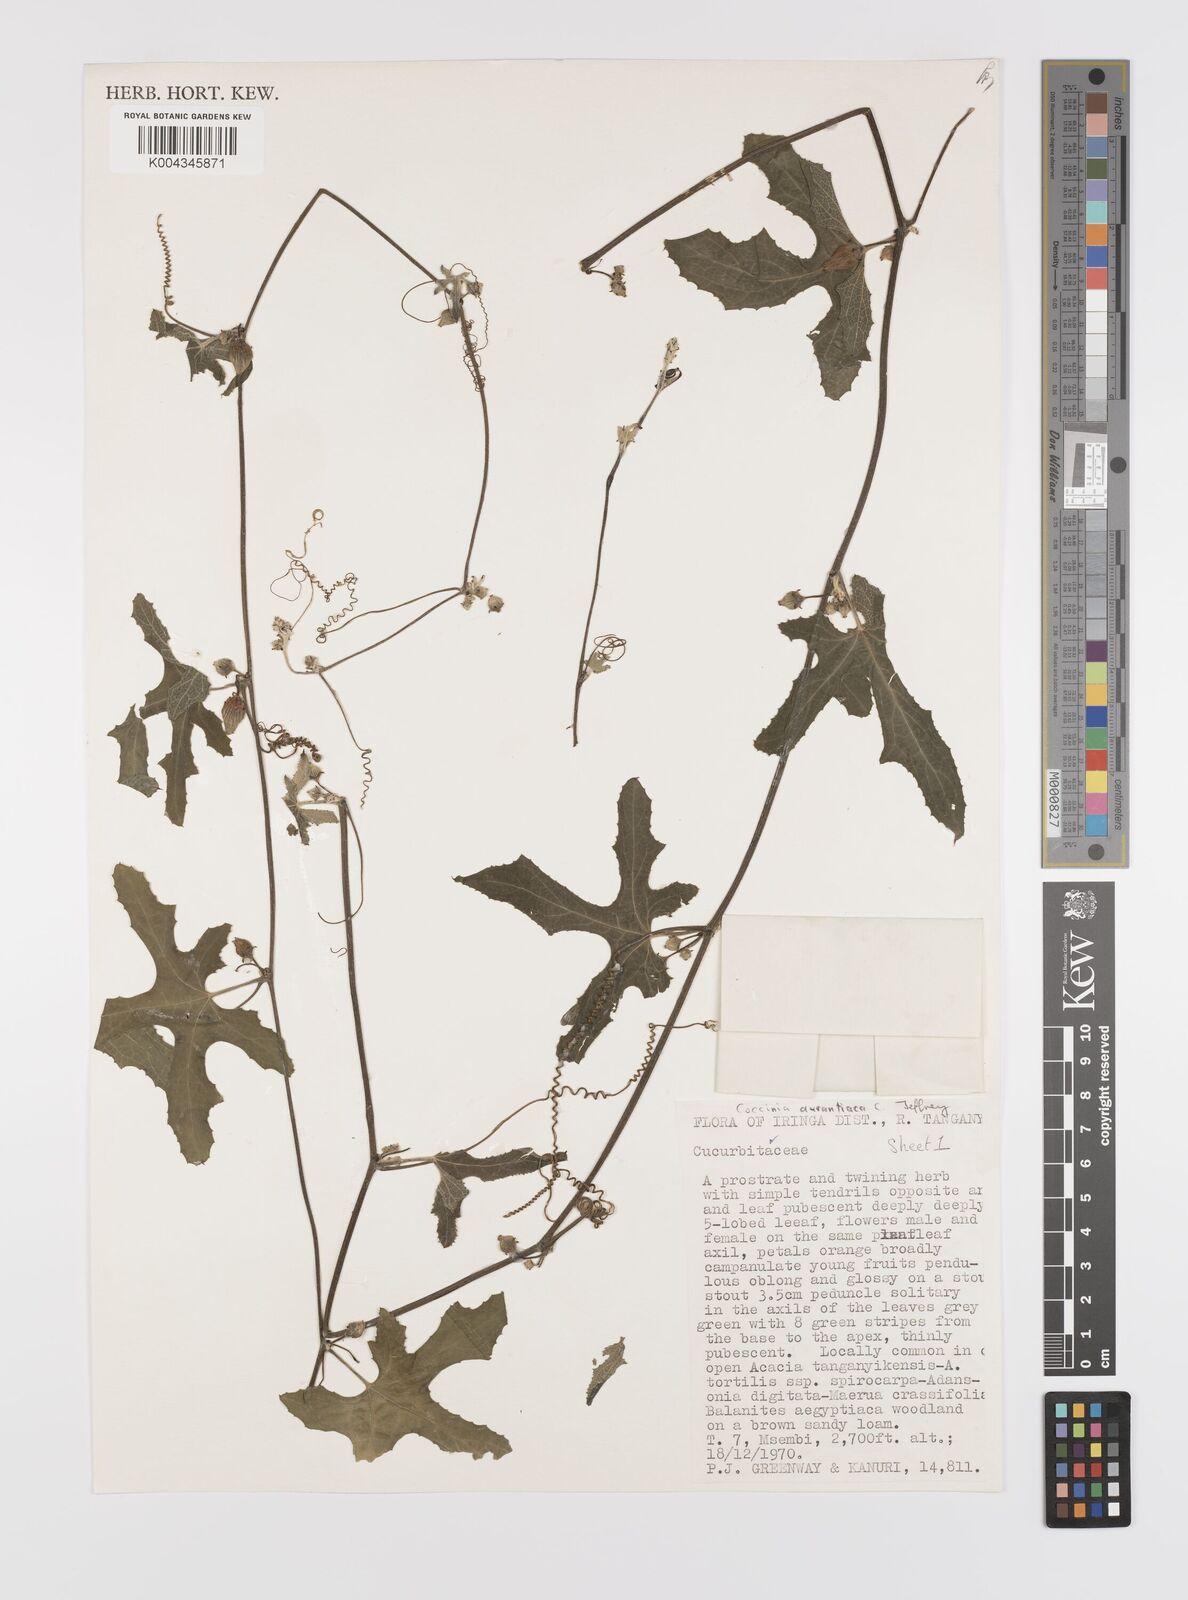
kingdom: Plantae
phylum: Tracheophyta
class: Magnoliopsida
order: Cucurbitales
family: Cucurbitaceae
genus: Coccinia
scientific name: Coccinia adoensis
